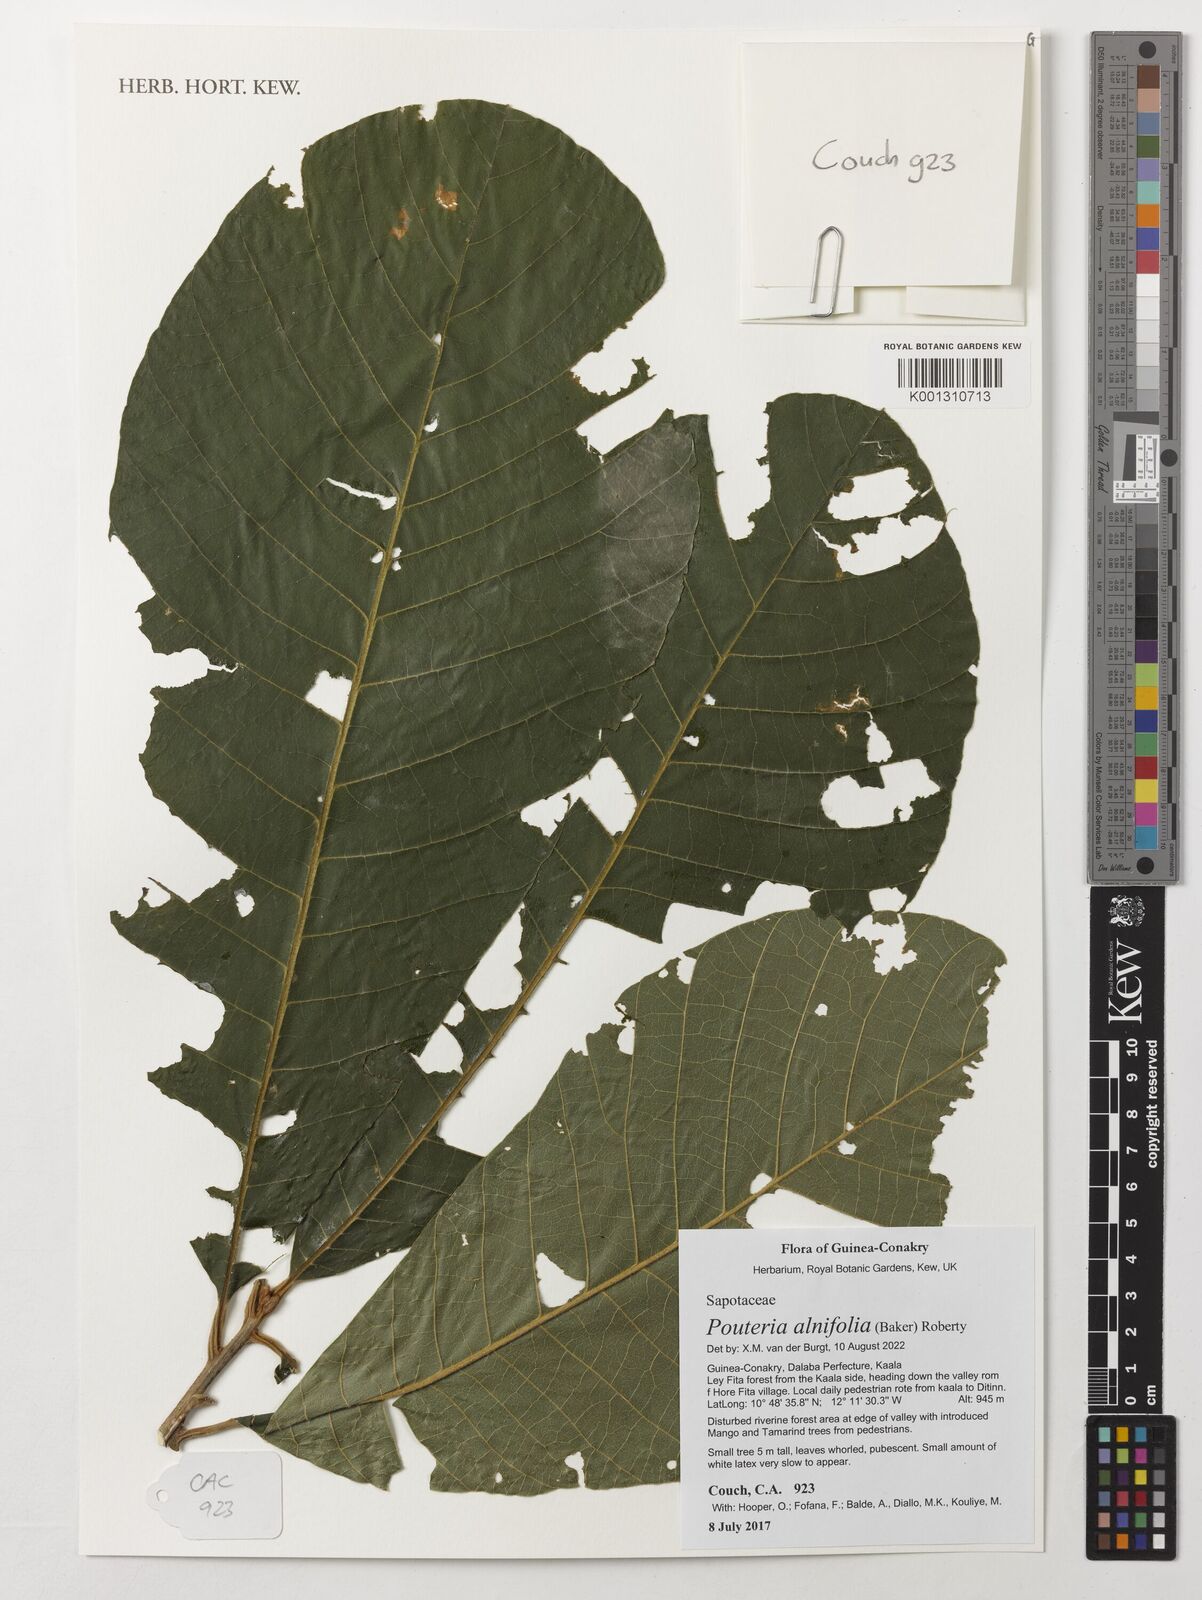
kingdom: Plantae
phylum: Tracheophyta
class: Magnoliopsida
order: Ericales
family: Sapotaceae
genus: Malacantha
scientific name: Malacantha alnifolia
